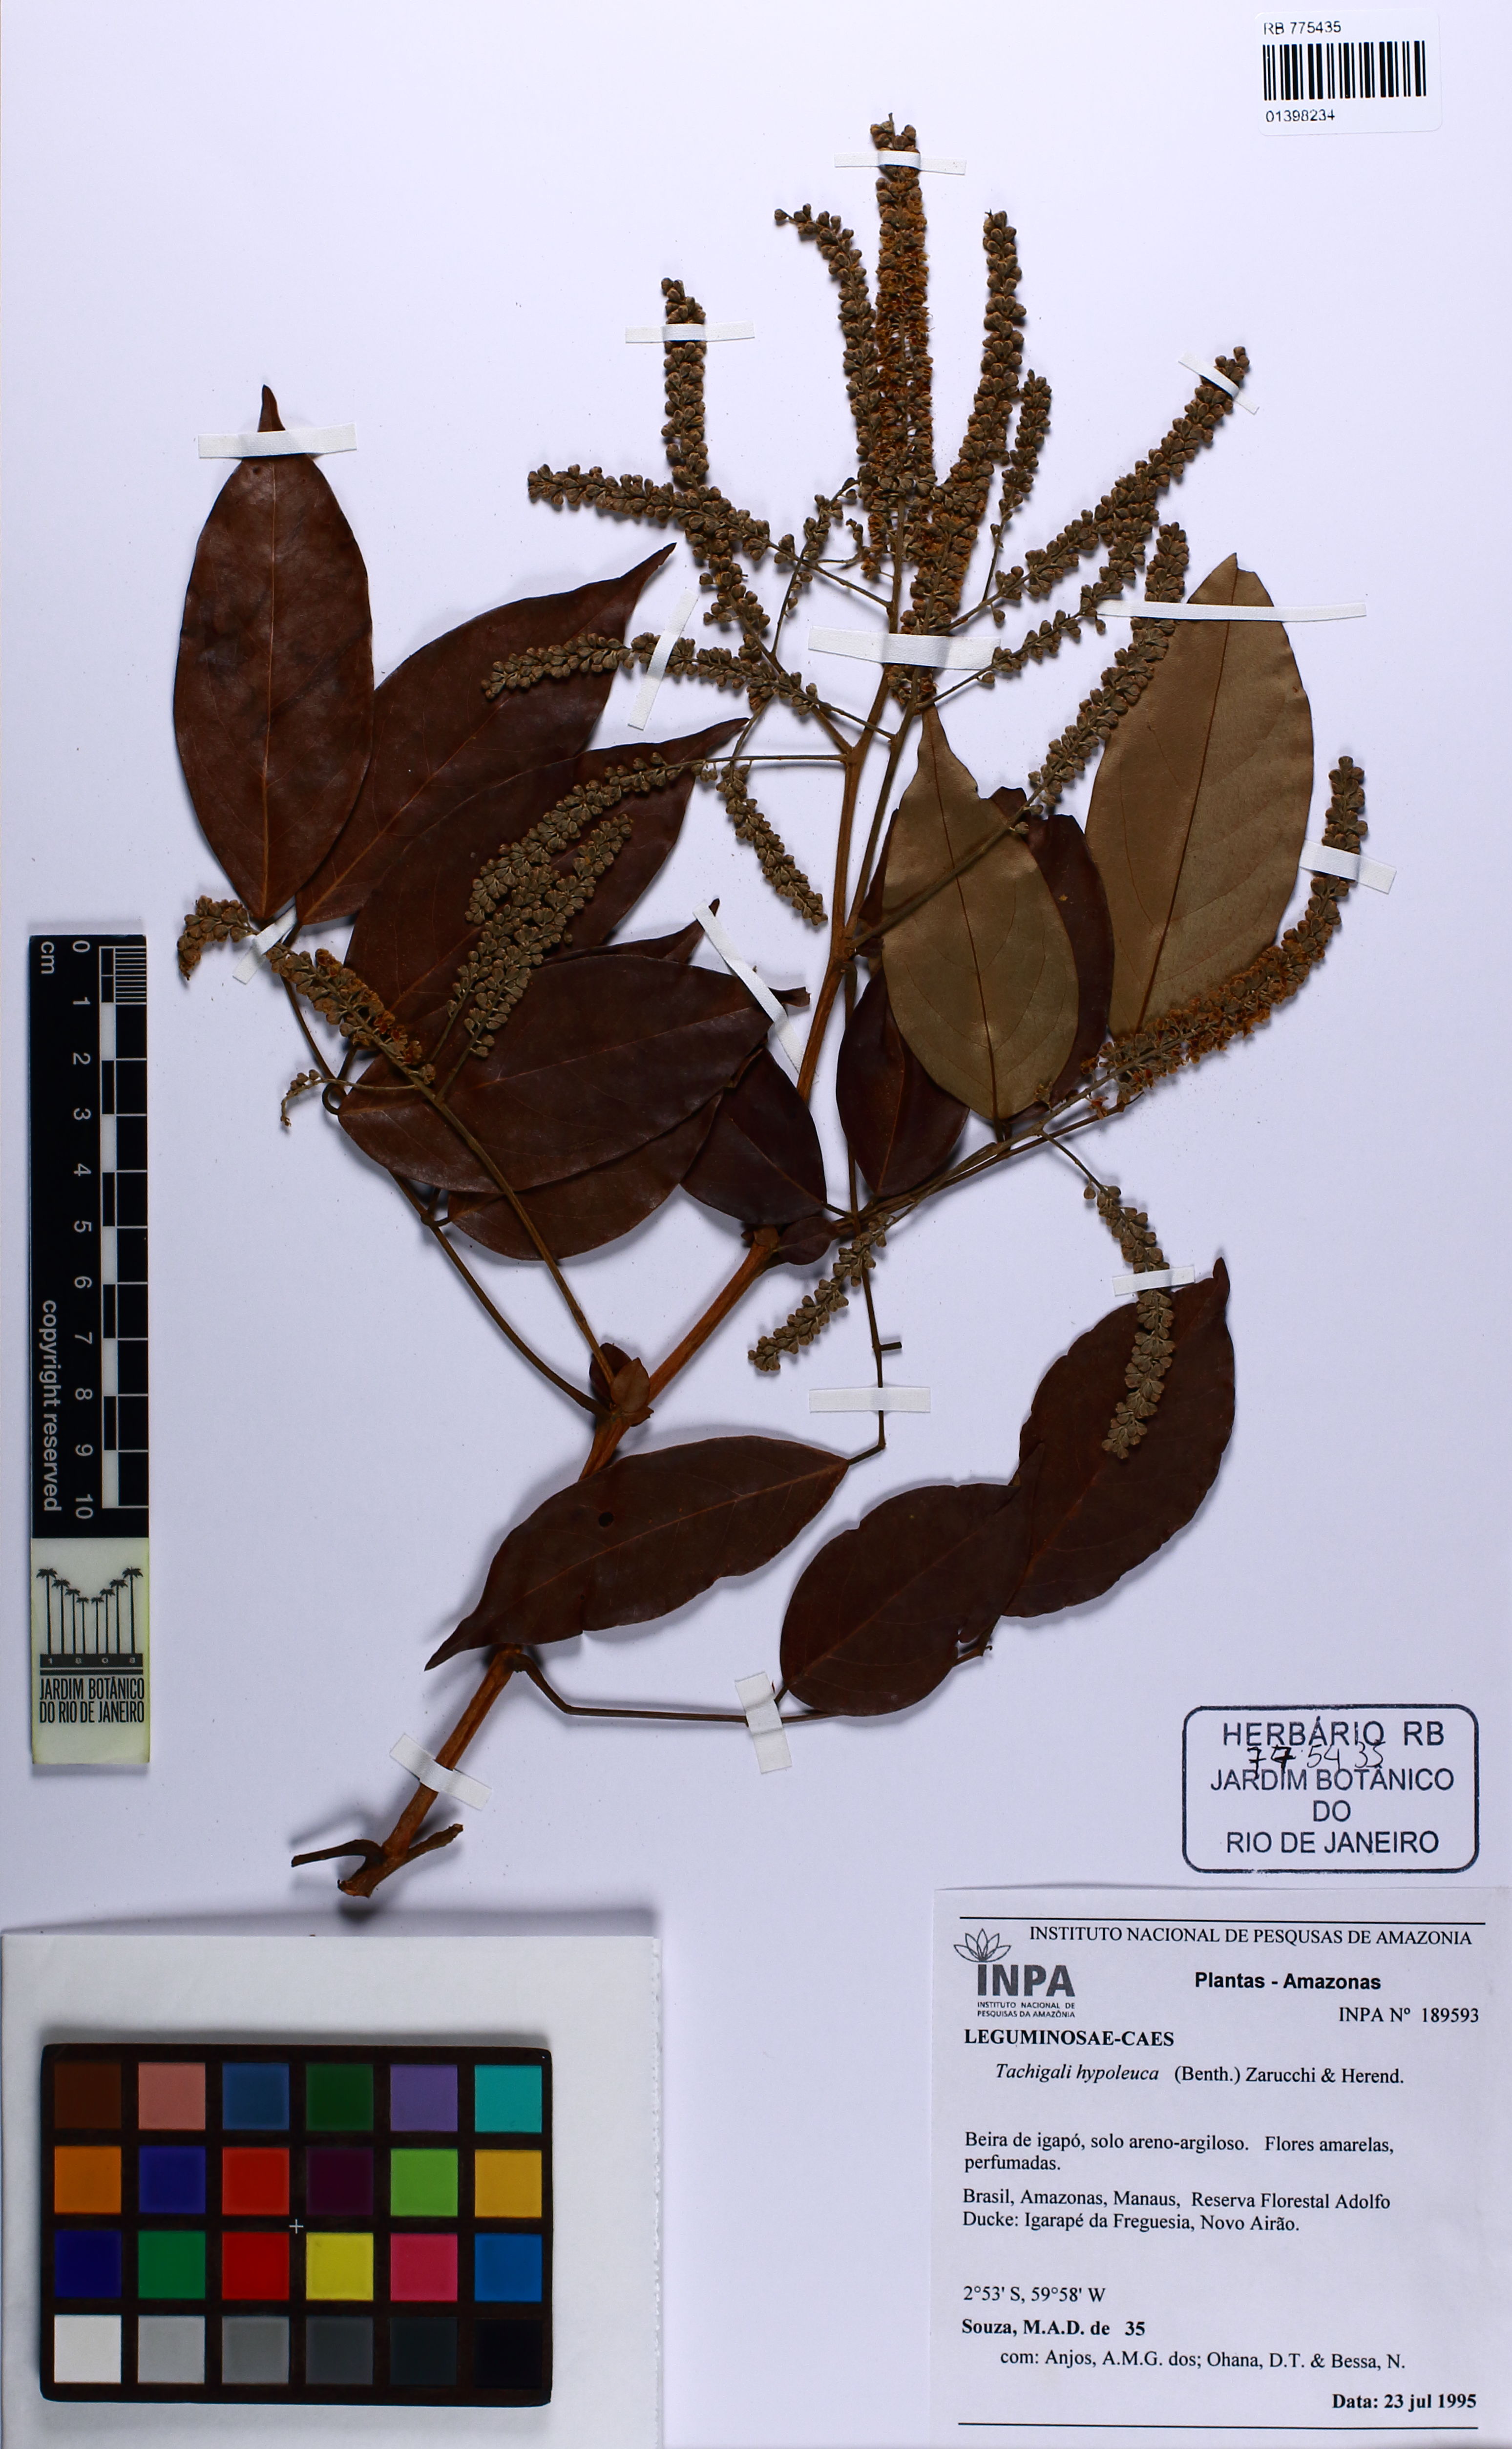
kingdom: Plantae
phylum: Tracheophyta
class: Magnoliopsida
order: Fabales
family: Fabaceae
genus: Tachigali
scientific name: Tachigali hypoleuca
